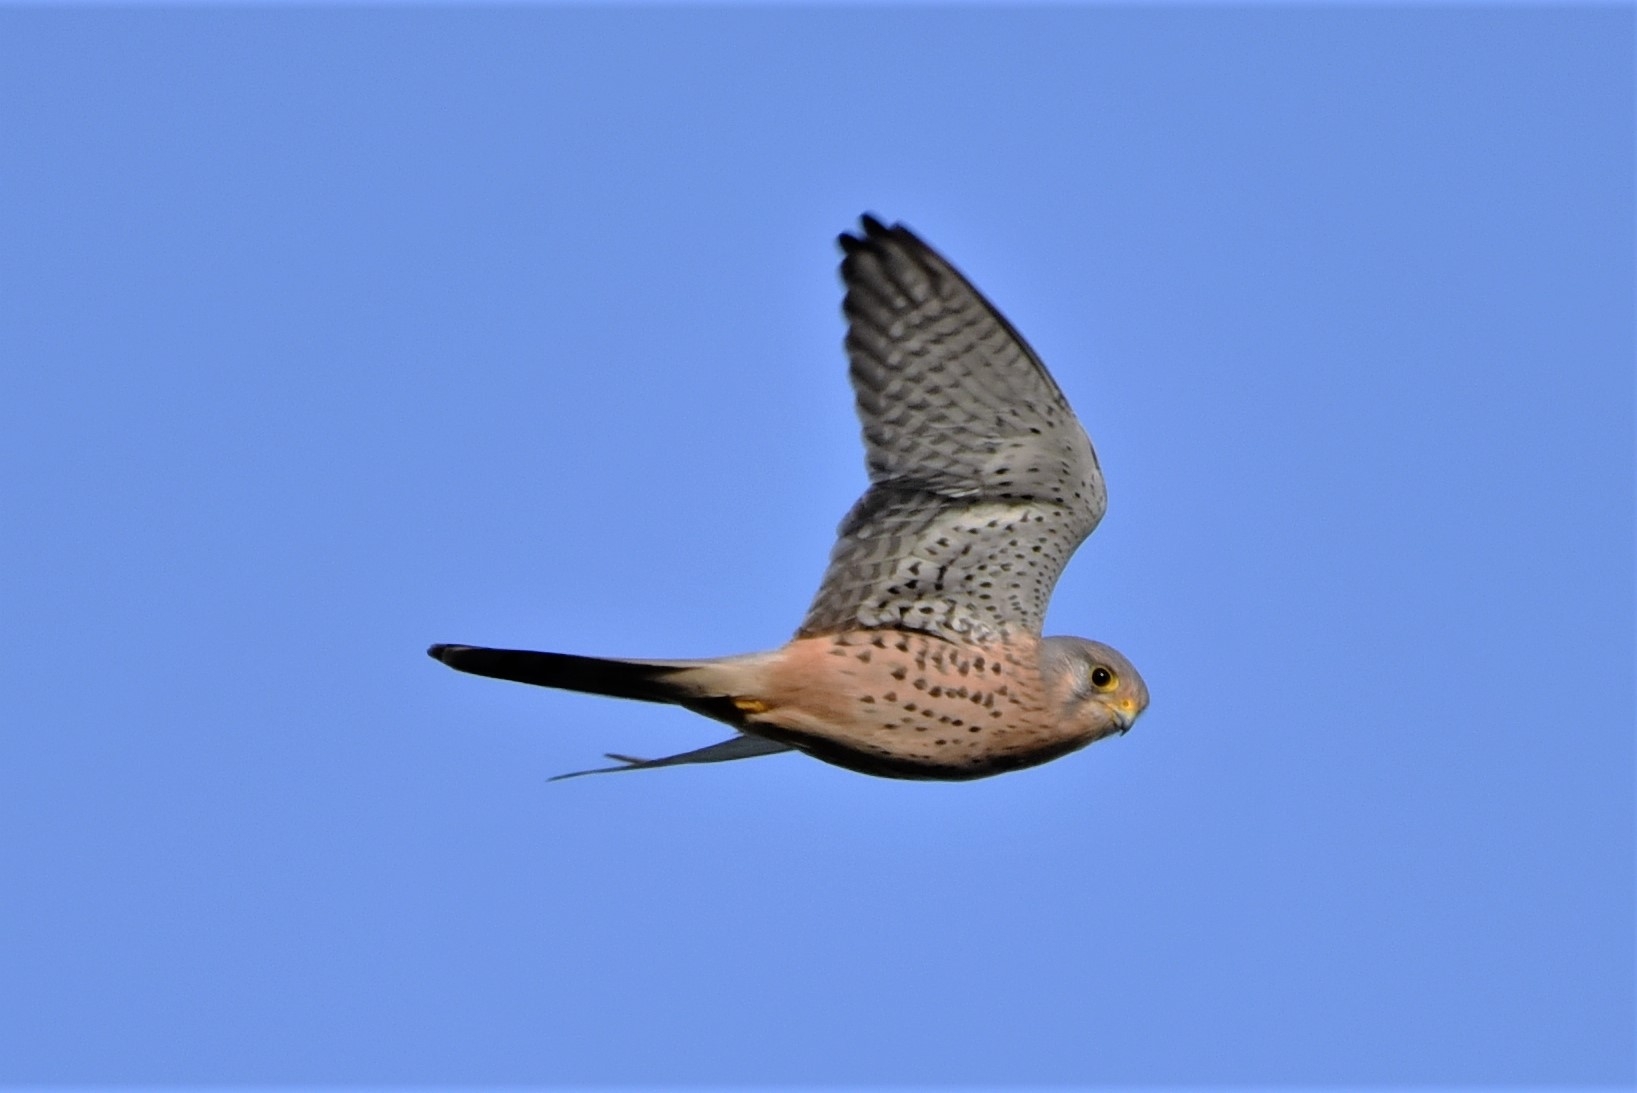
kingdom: Animalia
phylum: Chordata
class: Aves
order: Falconiformes
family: Falconidae
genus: Falco
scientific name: Falco tinnunculus
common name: Tårnfalk
